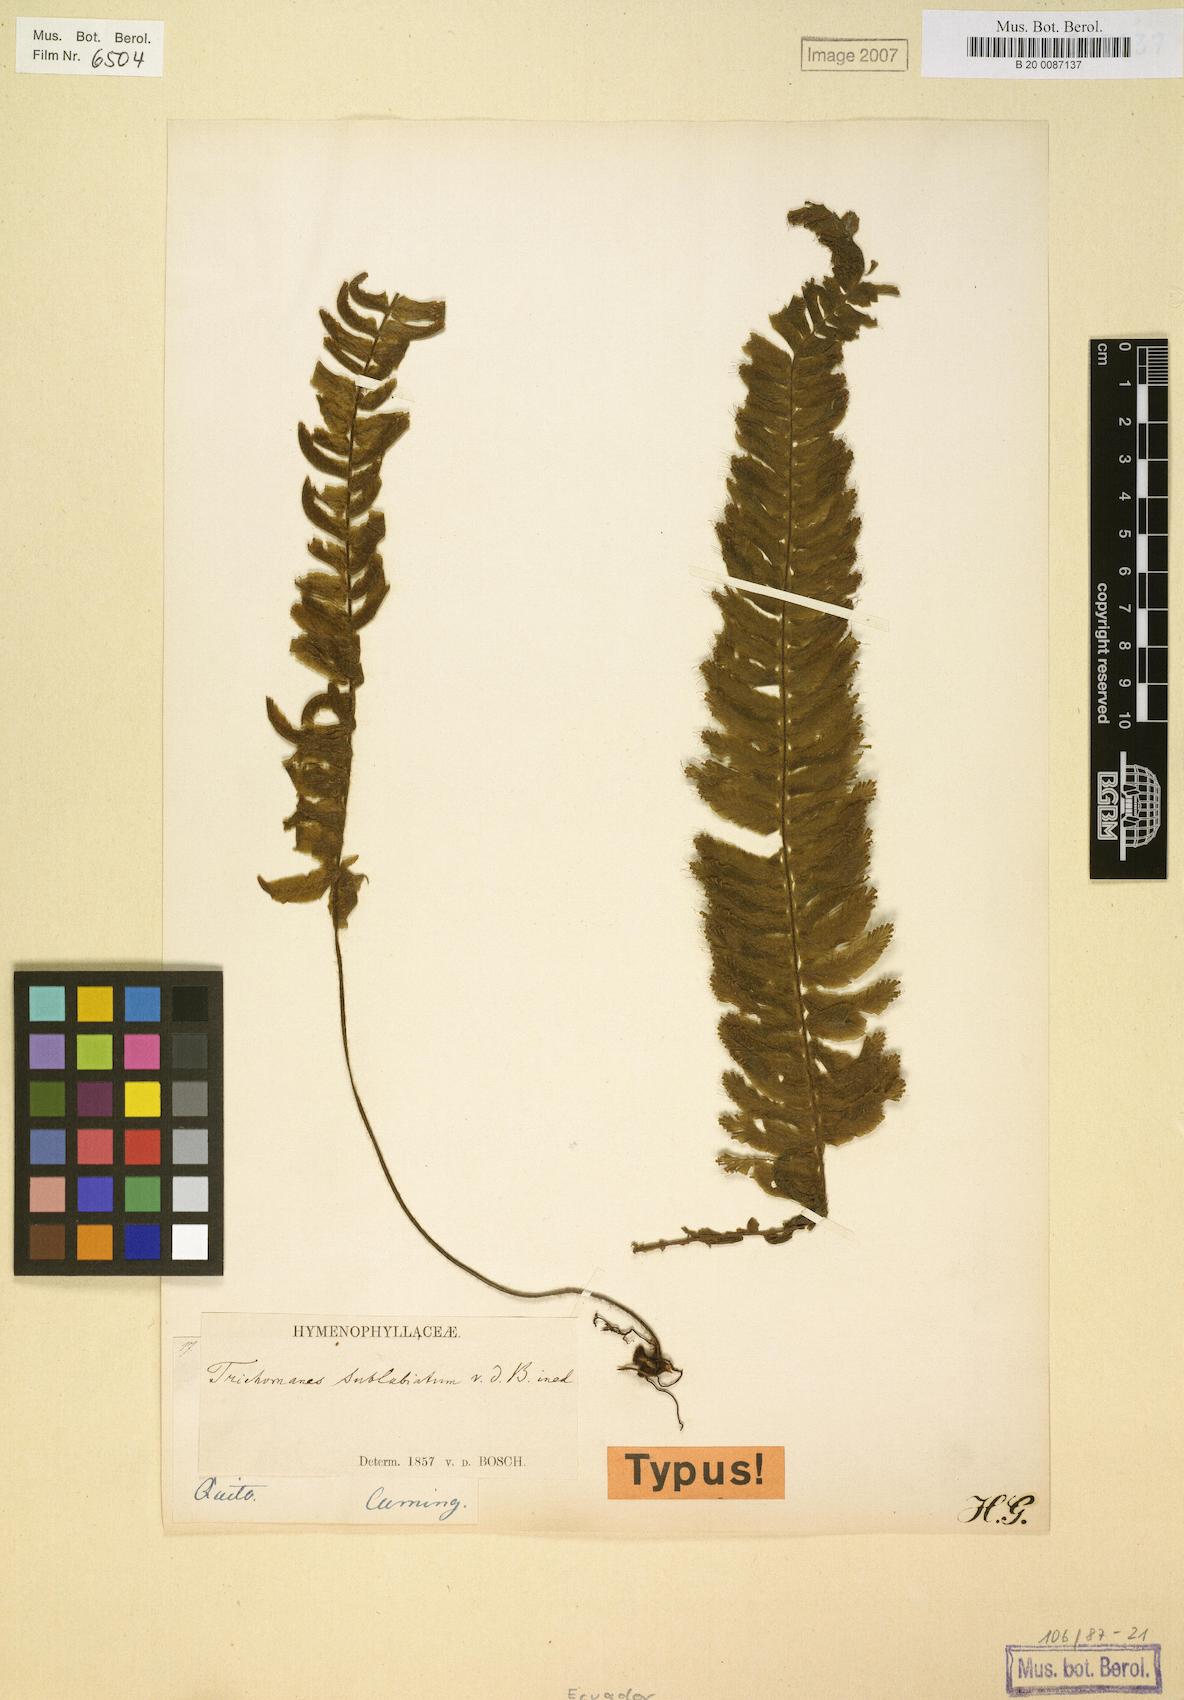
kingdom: Plantae
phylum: Tracheophyta
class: Polypodiopsida
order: Hymenophyllales
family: Hymenophyllaceae
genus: Trichomanes
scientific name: Trichomanes sublabiatum
